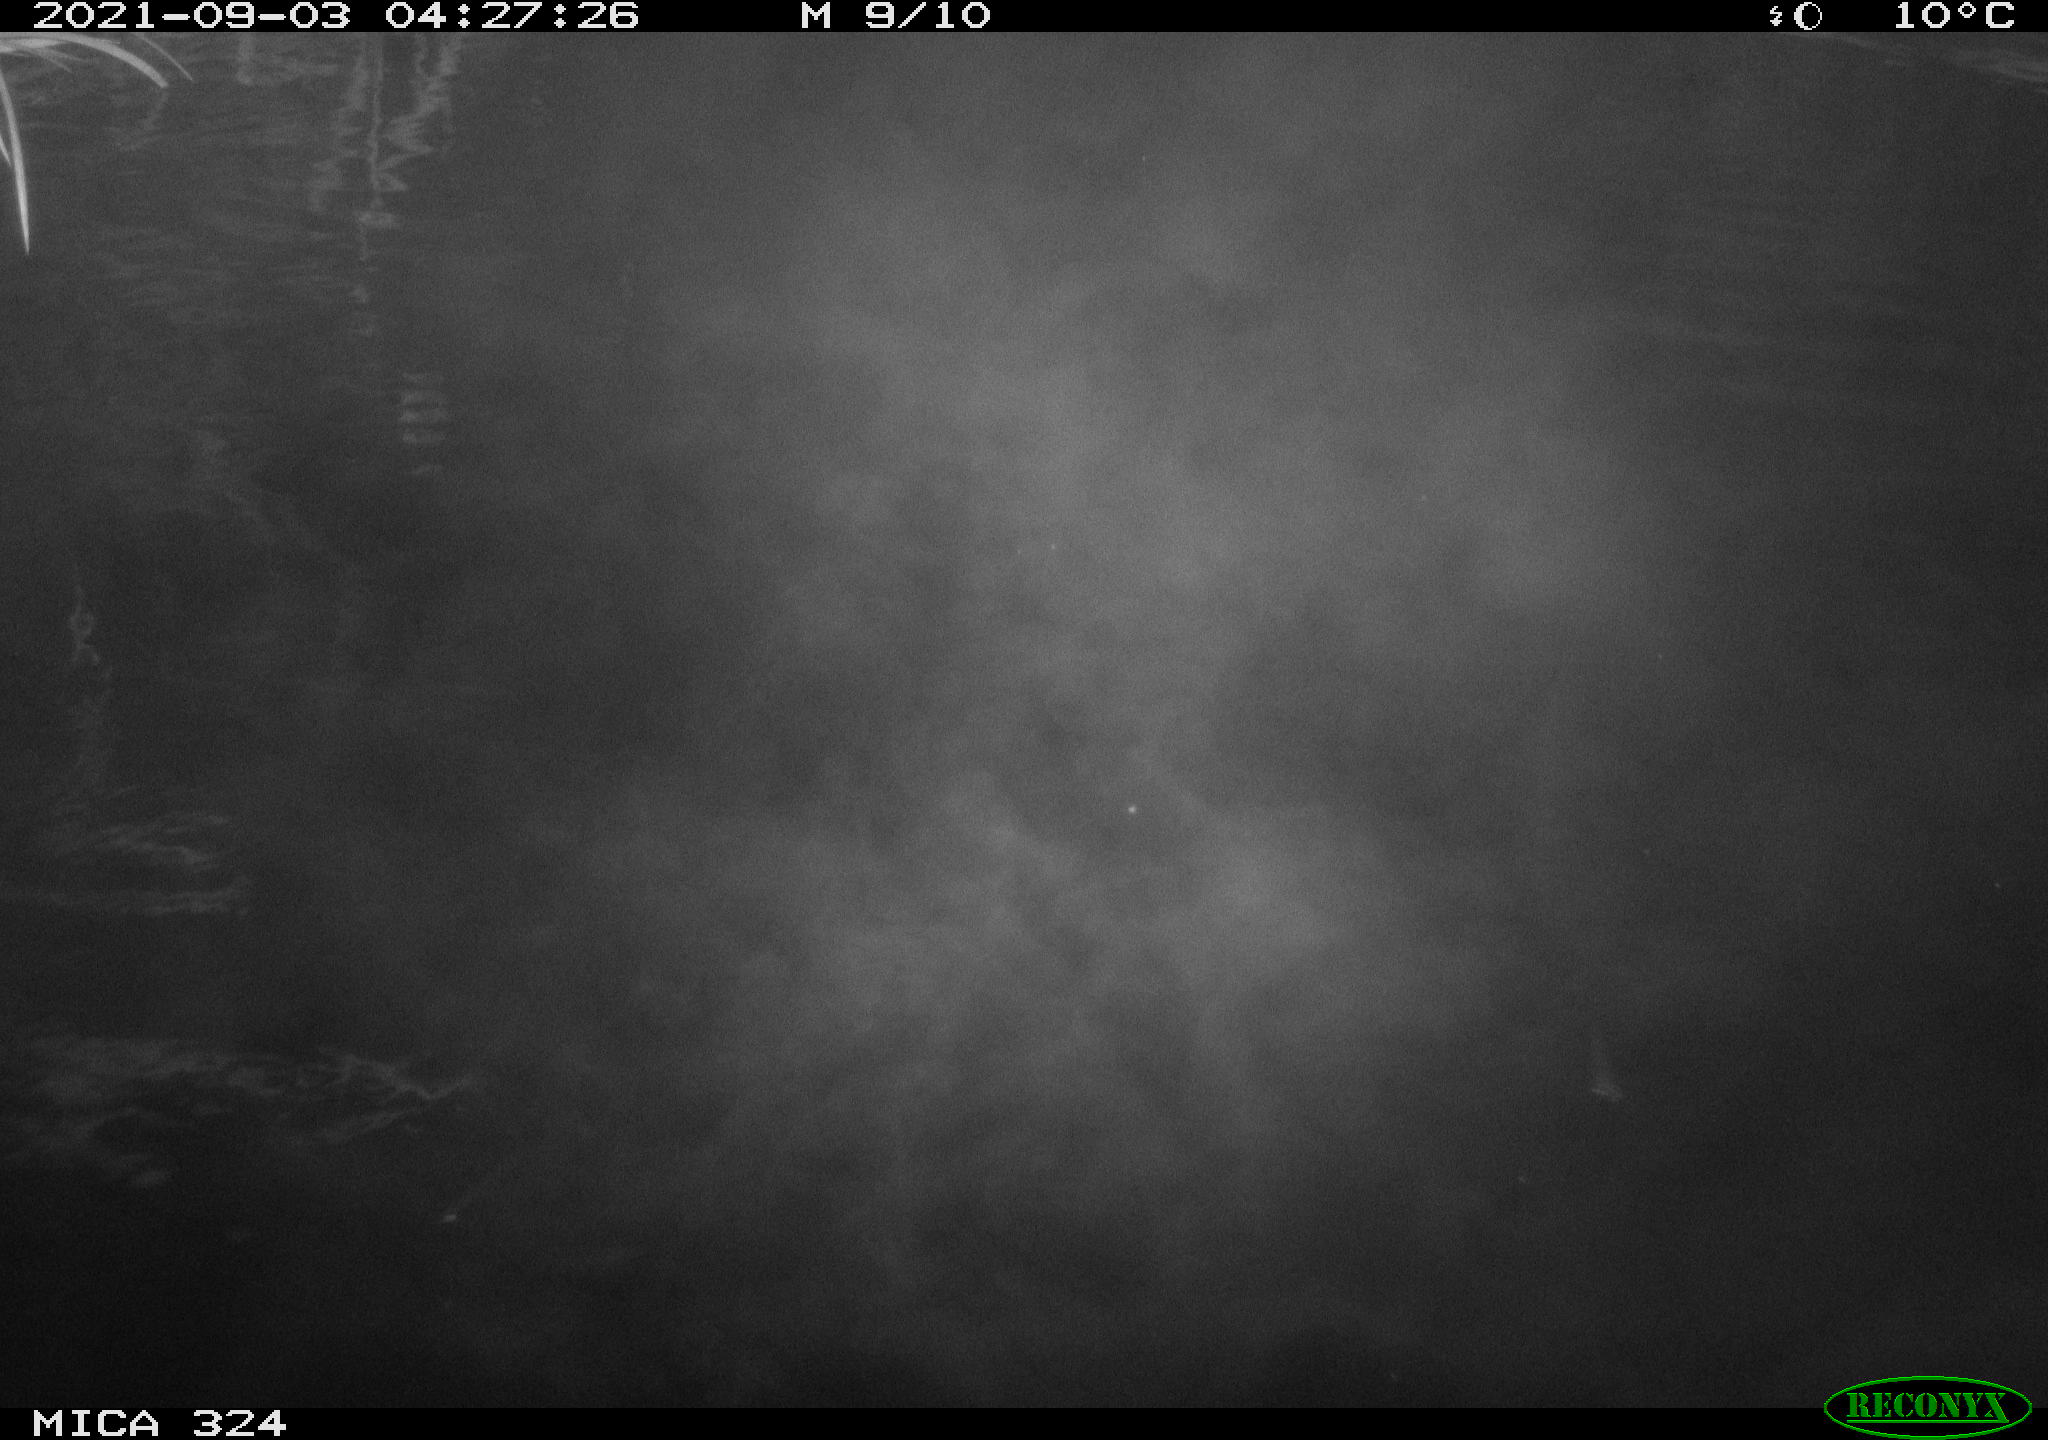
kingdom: Animalia
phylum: Chordata
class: Mammalia
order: Rodentia
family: Cricetidae
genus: Ondatra
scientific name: Ondatra zibethicus
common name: Muskrat
